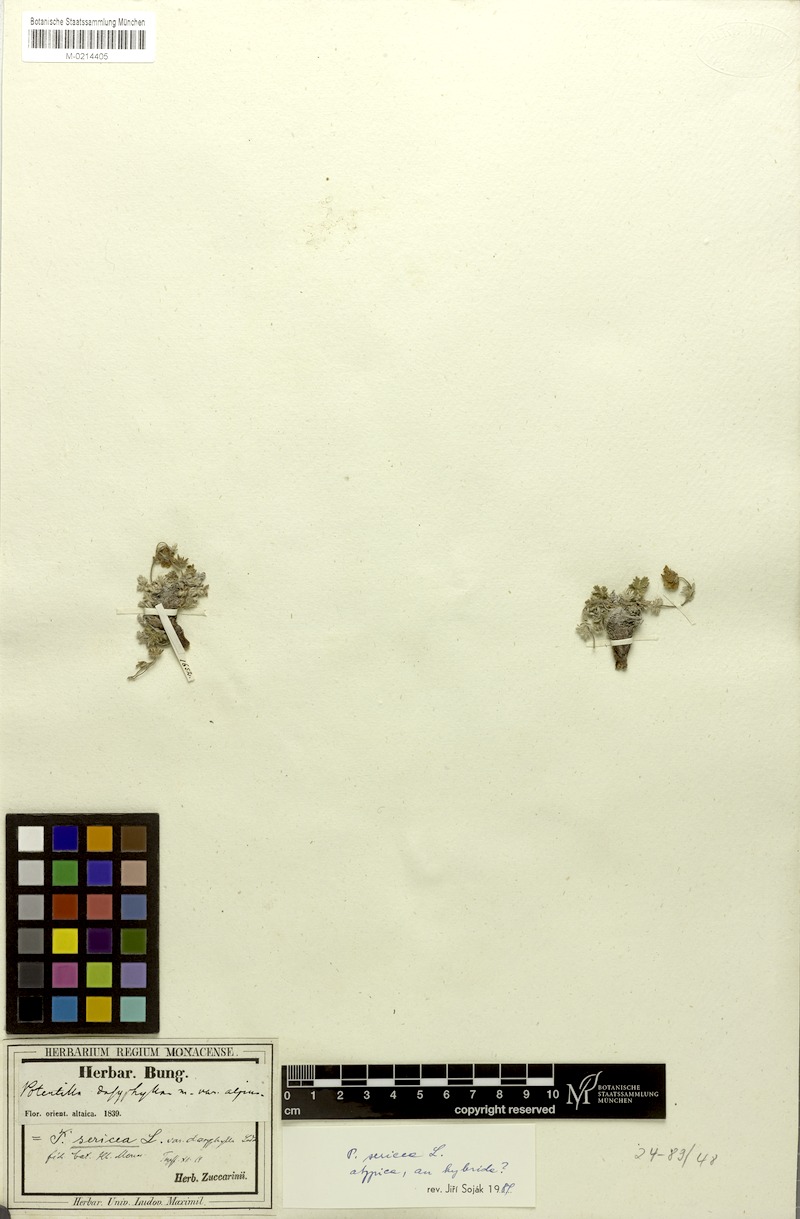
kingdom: Plantae
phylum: Tracheophyta
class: Magnoliopsida
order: Rosales
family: Rosaceae
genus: Potentilla
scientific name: Potentilla sericea
